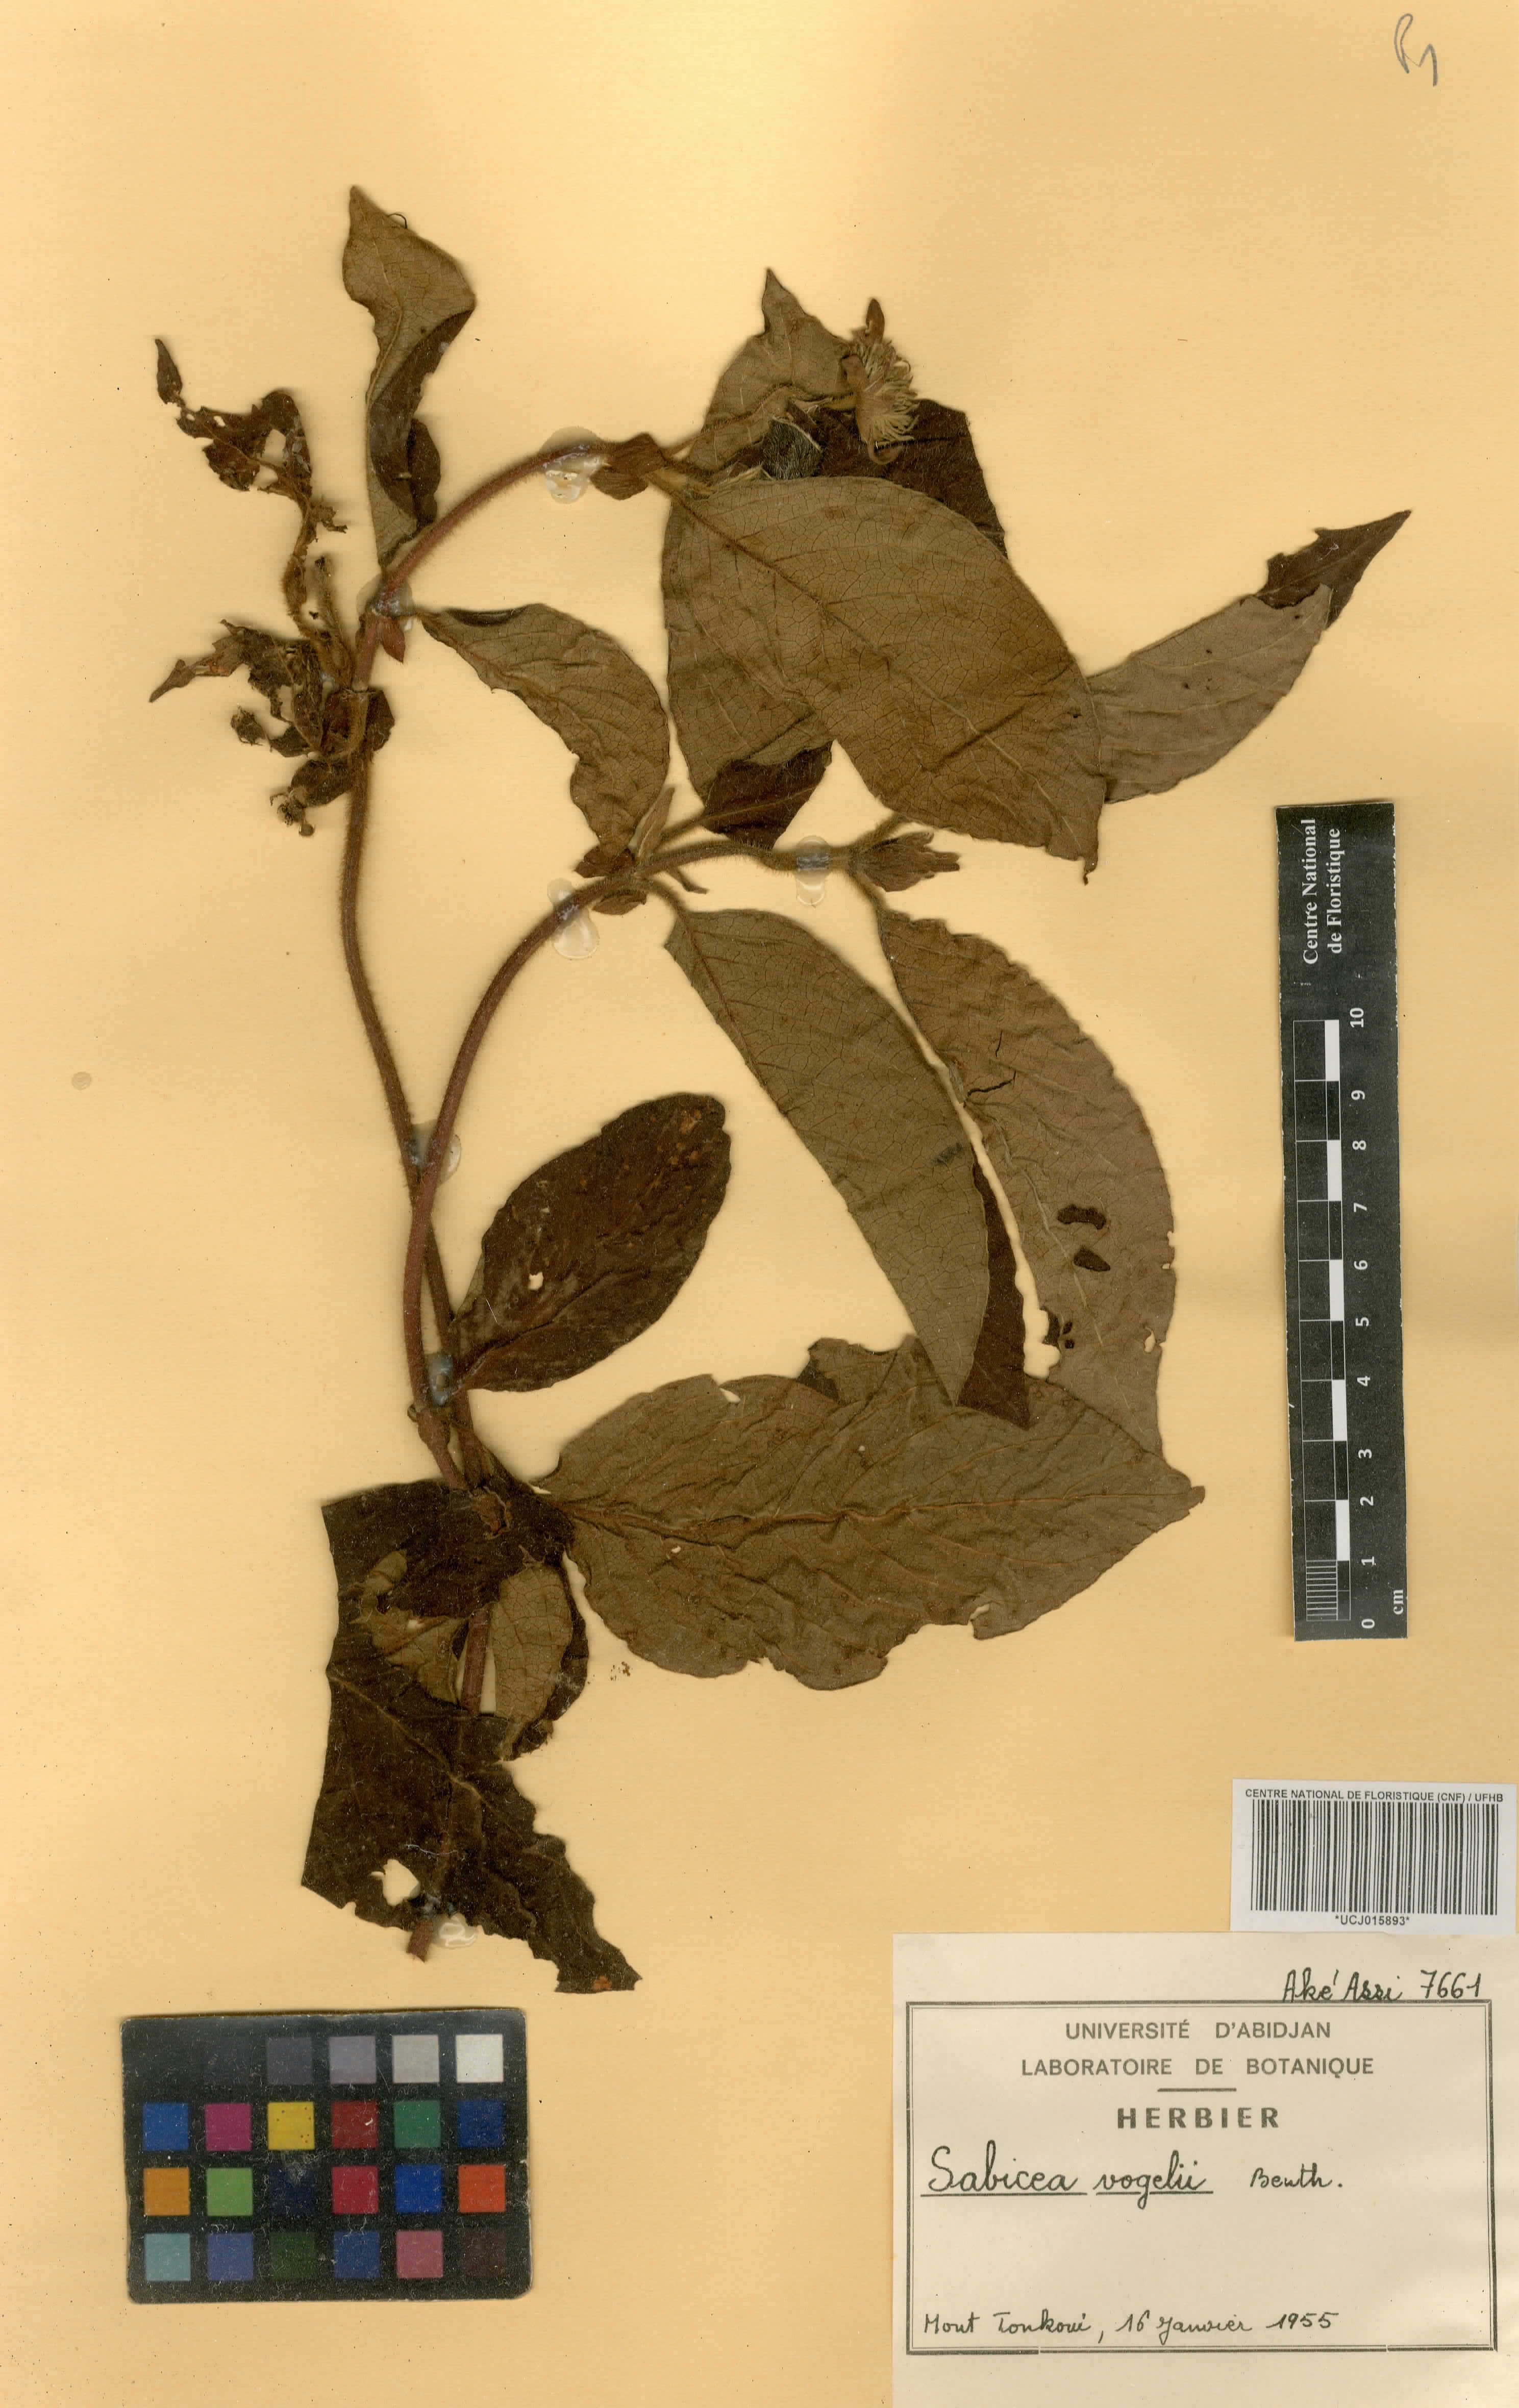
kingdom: Plantae
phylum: Tracheophyta
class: Magnoliopsida
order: Gentianales
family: Rubiaceae
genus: Sabicea
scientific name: Sabicea vogelii
